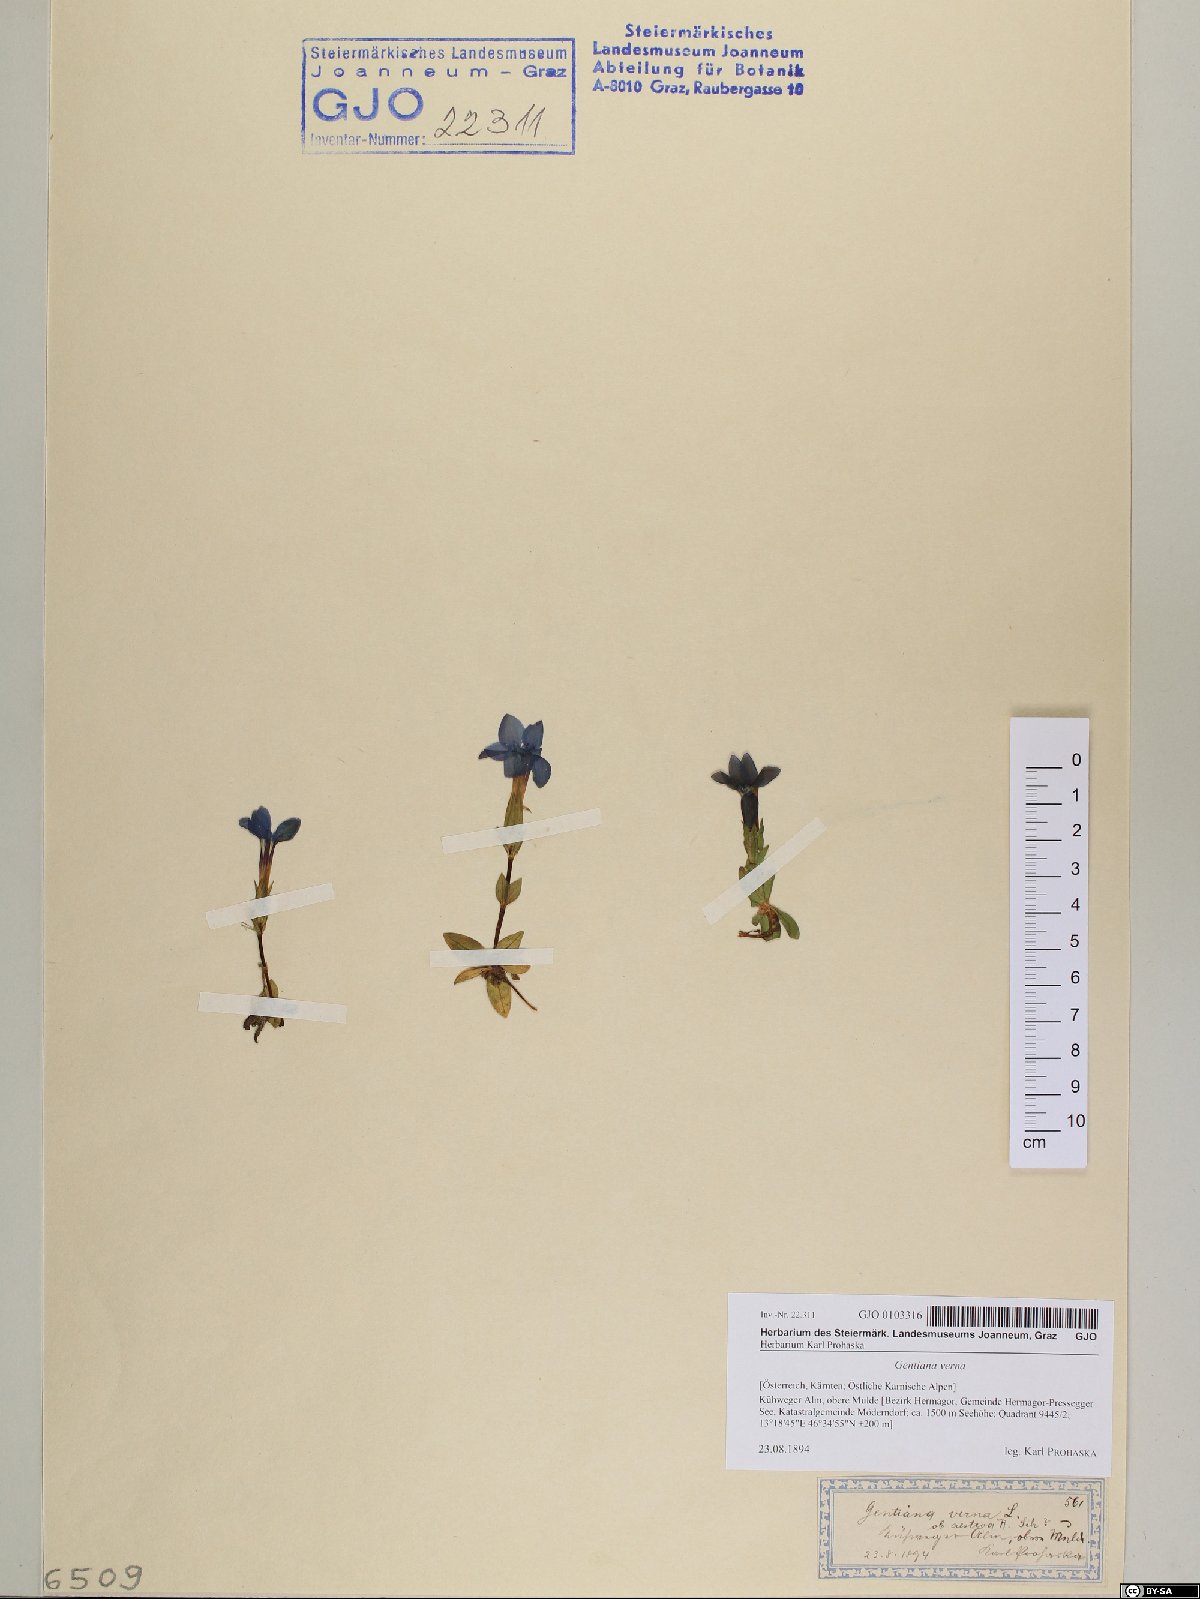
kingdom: Plantae
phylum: Tracheophyta
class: Magnoliopsida
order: Gentianales
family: Gentianaceae
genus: Gentiana
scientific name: Gentiana verna
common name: Spring gentian
